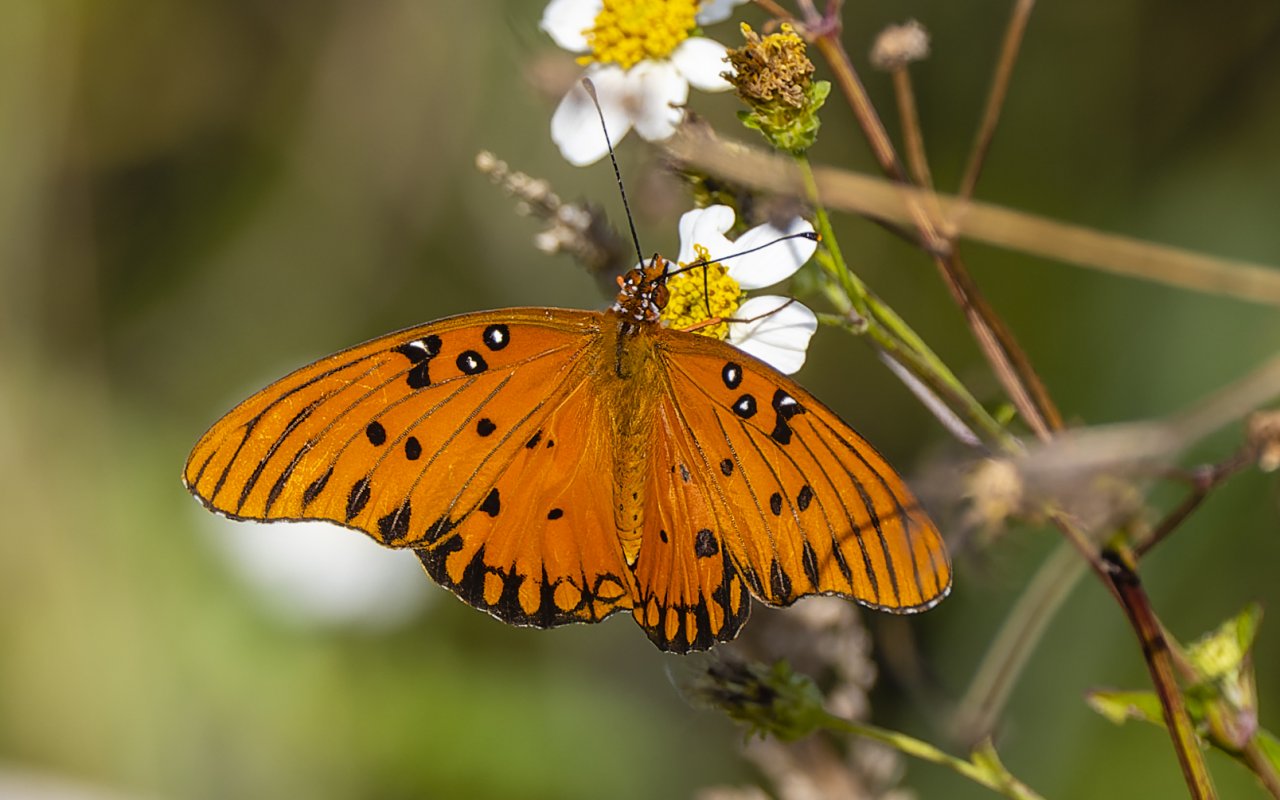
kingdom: Animalia
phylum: Arthropoda
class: Insecta
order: Lepidoptera
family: Nymphalidae
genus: Dione
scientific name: Dione vanillae
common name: Gulf Fritillary
